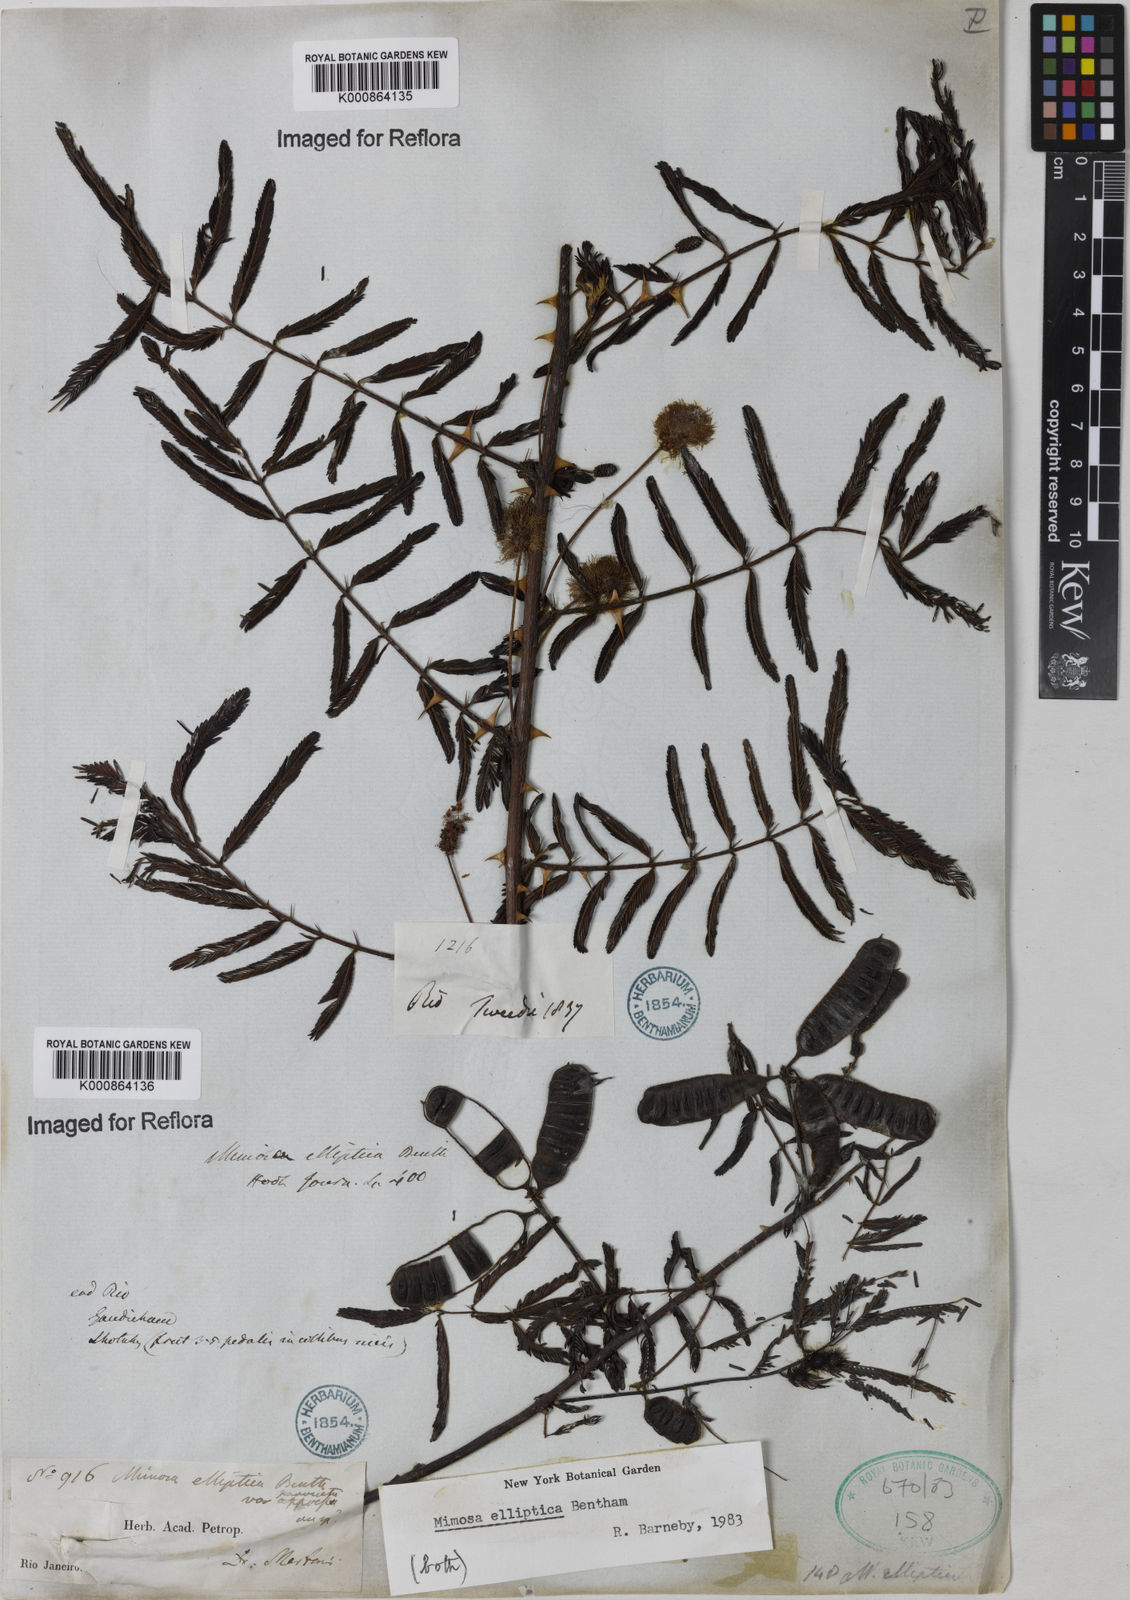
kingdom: Plantae
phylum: Tracheophyta
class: Magnoliopsida
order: Fabales
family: Fabaceae
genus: Mimosa
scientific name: Mimosa elliptica
